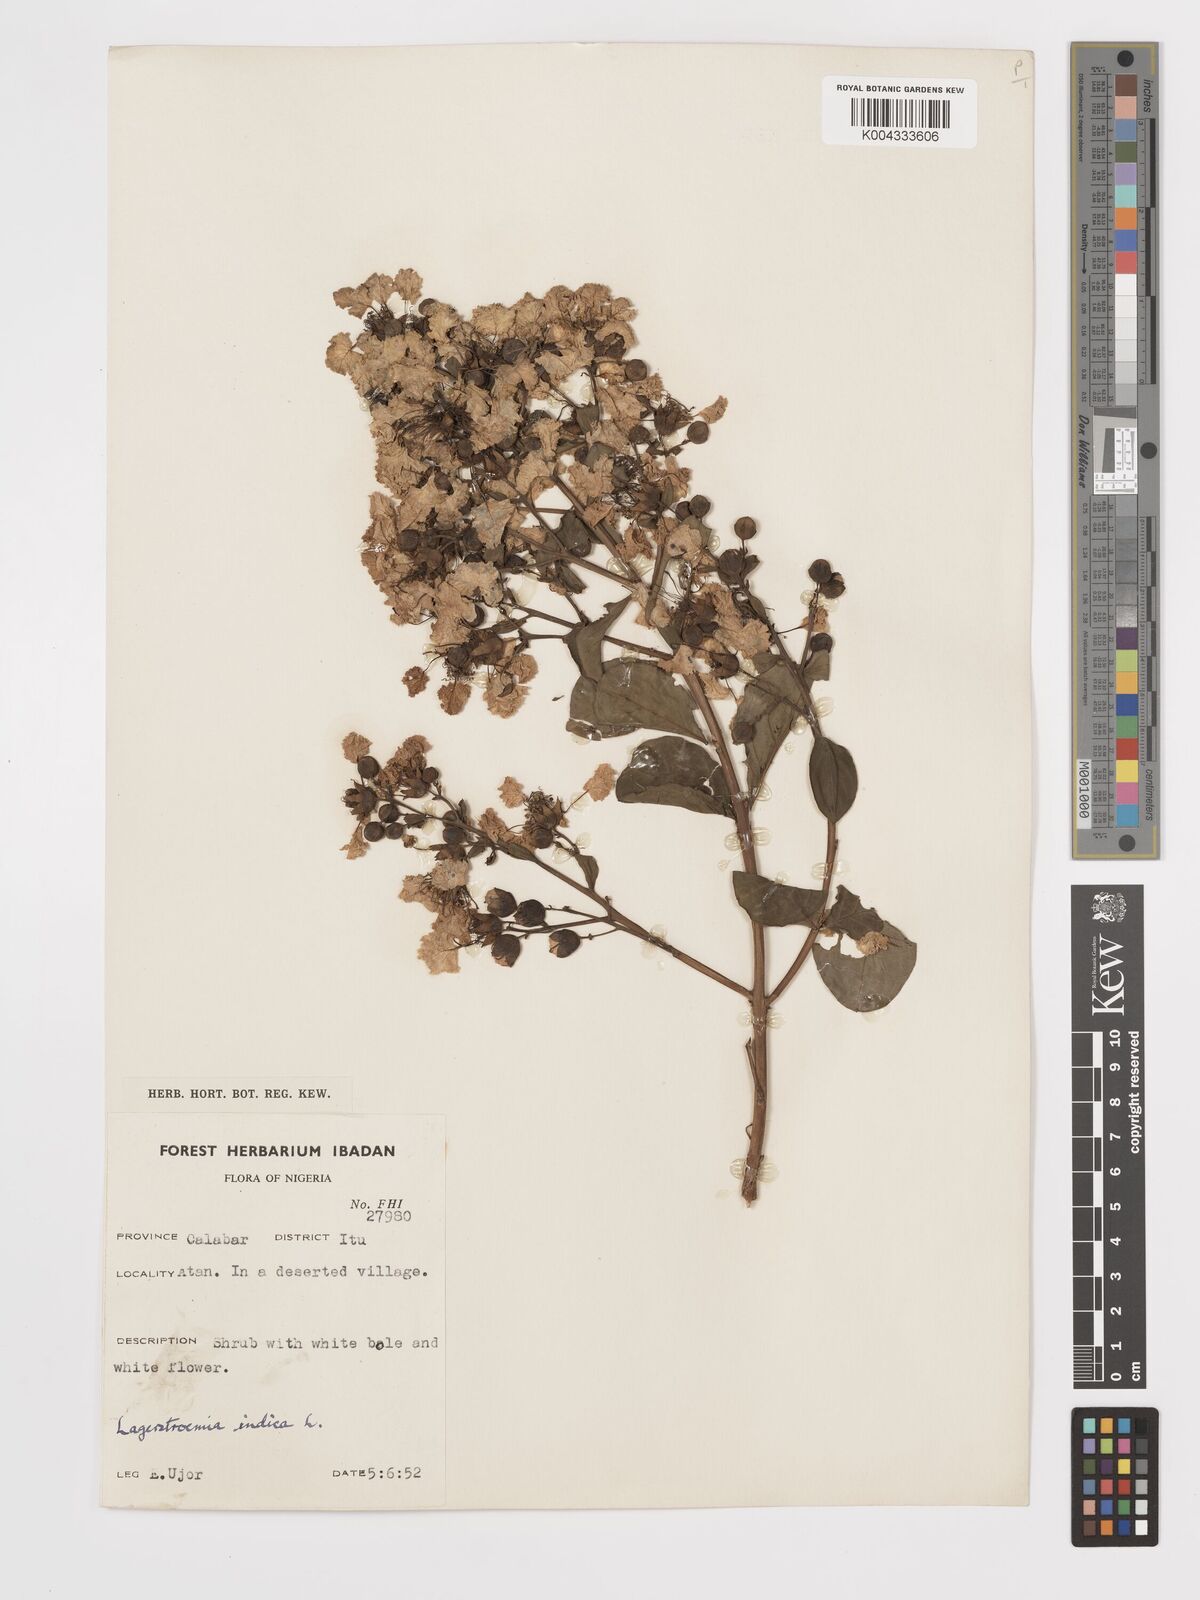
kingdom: Plantae
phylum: Tracheophyta
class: Magnoliopsida
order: Myrtales
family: Lythraceae
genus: Lagerstroemia
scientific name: Lagerstroemia indica
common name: Crape-myrtle
